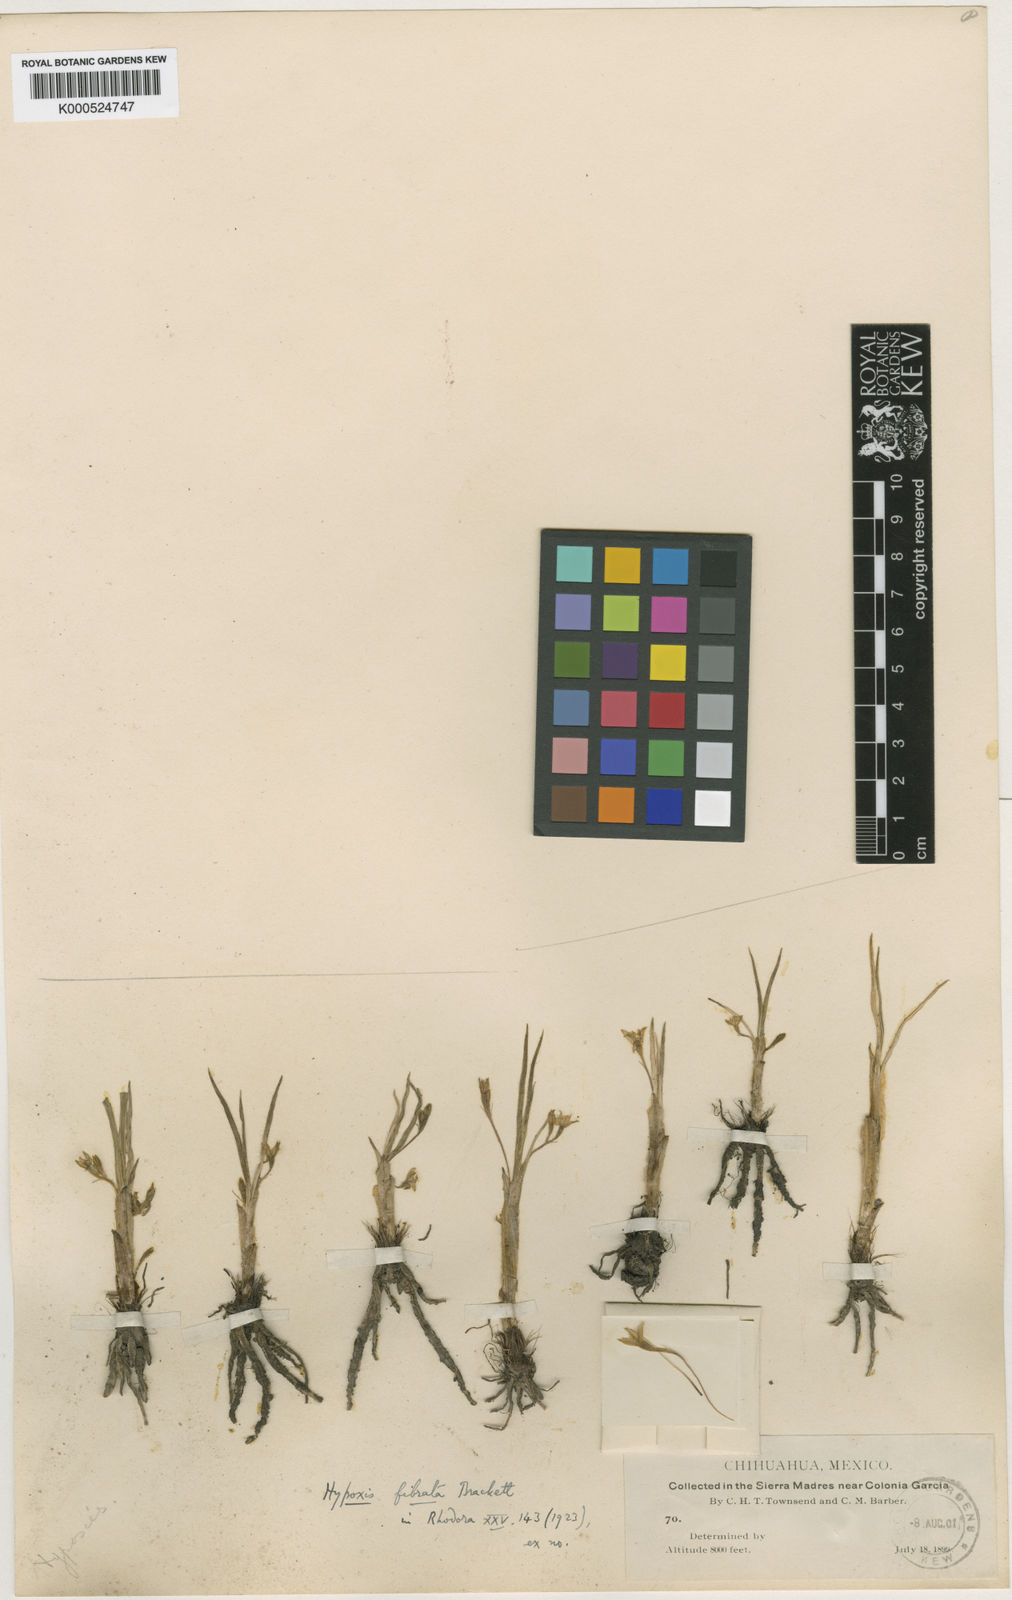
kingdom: Plantae
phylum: Tracheophyta
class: Liliopsida
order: Asparagales
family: Hypoxidaceae
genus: Hypoxis
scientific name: Hypoxis potosina
